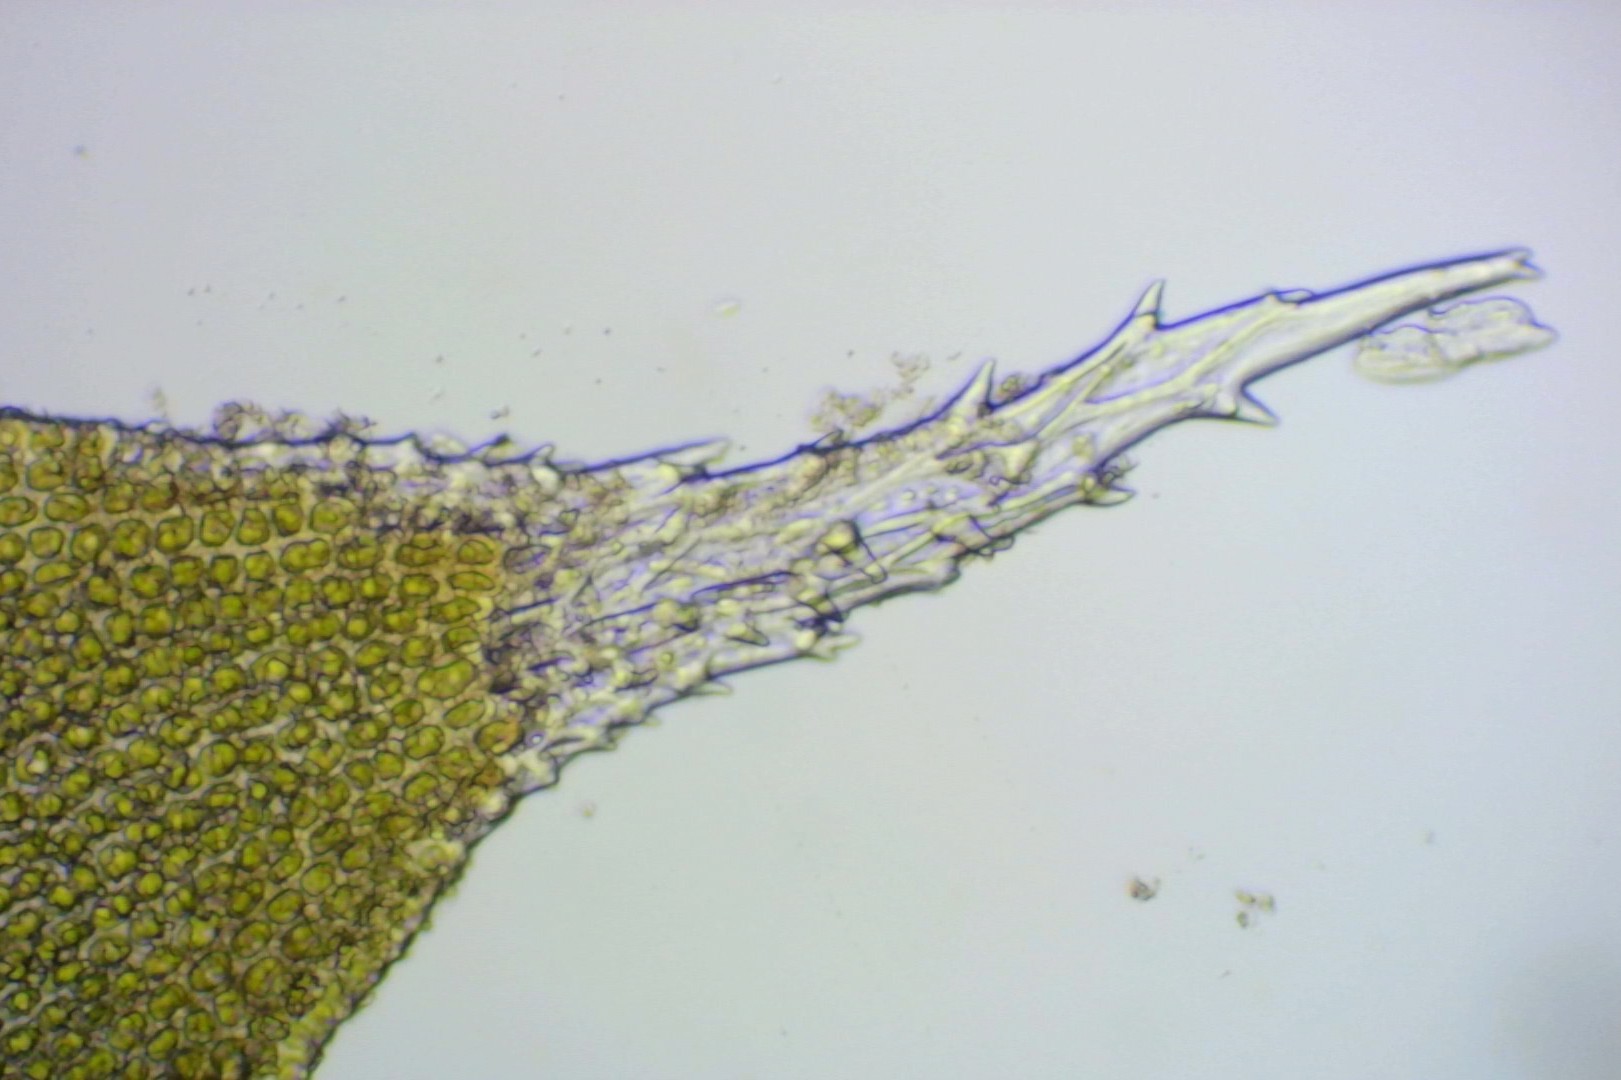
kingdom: Plantae
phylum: Bryophyta
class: Bryopsida
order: Hedwigiales
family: Hedwigiaceae
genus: Hedwigia
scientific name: Hedwigia stellata
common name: Stjernebladet hedwigia
